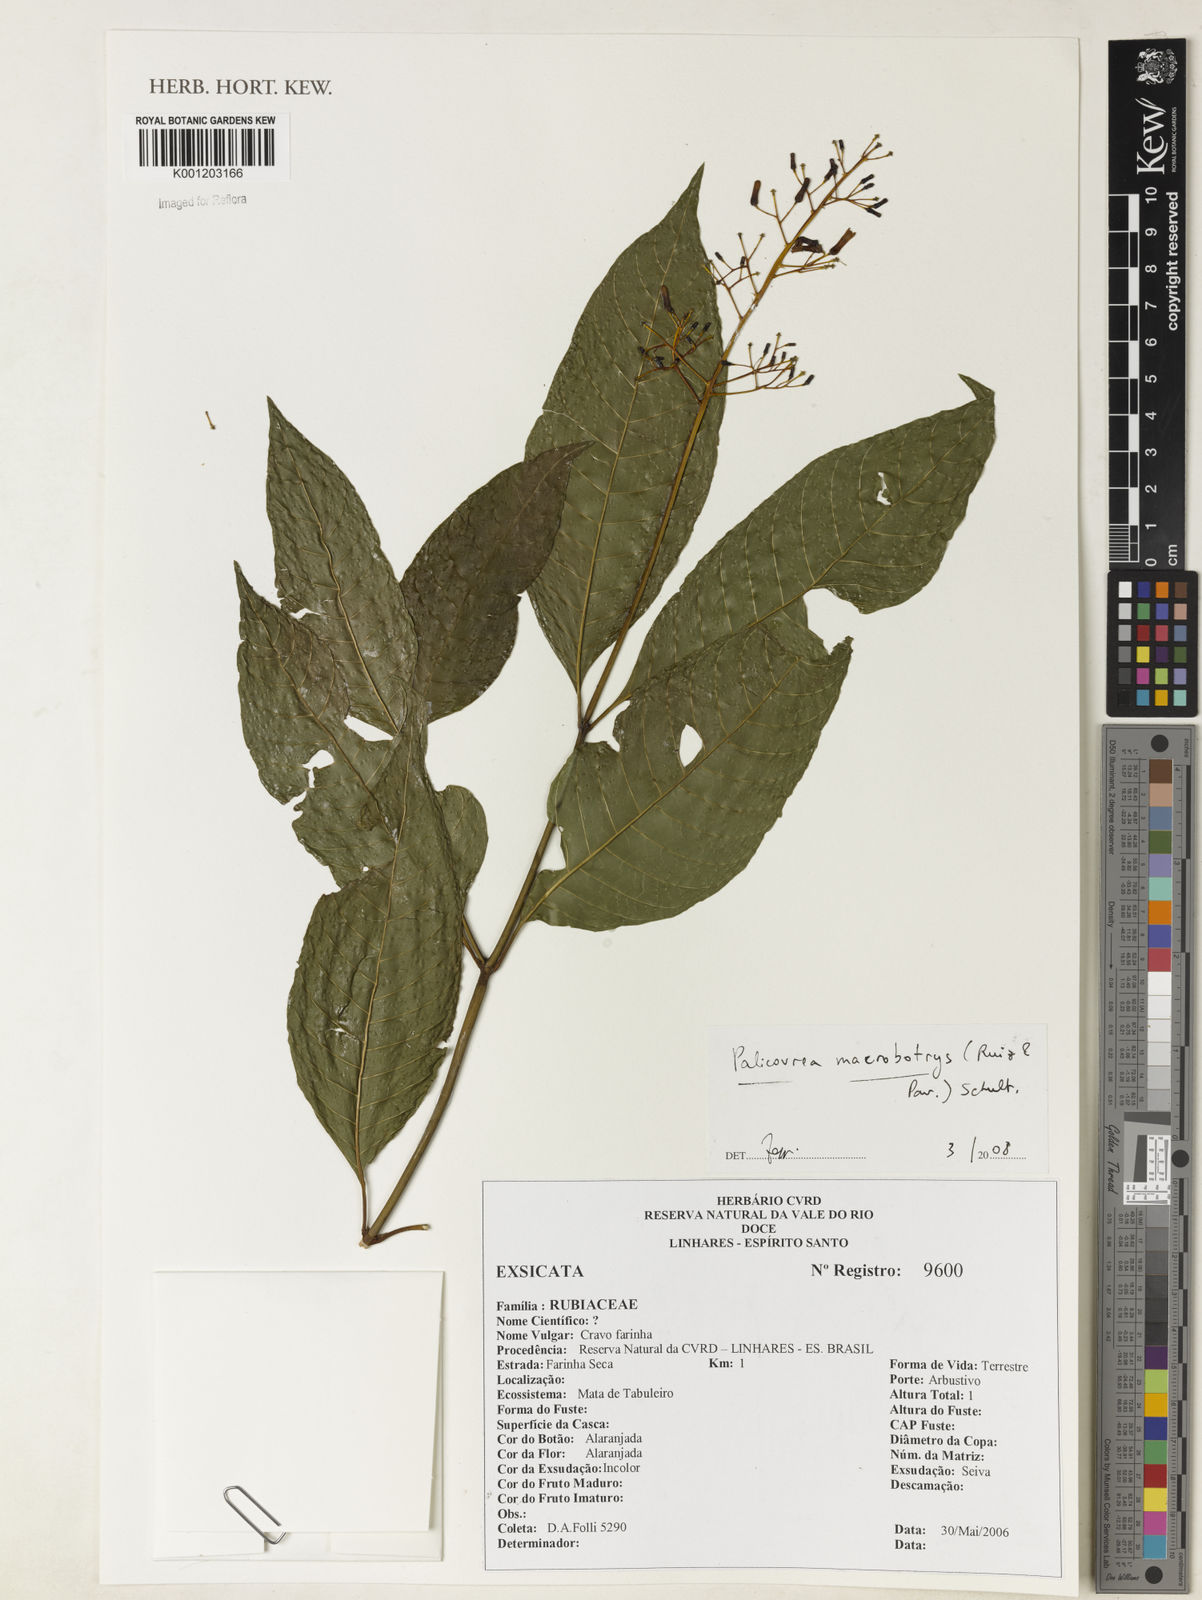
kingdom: Plantae
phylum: Tracheophyta
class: Magnoliopsida
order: Gentianales
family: Rubiaceae
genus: Palicourea
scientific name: Palicourea macrobotrys
